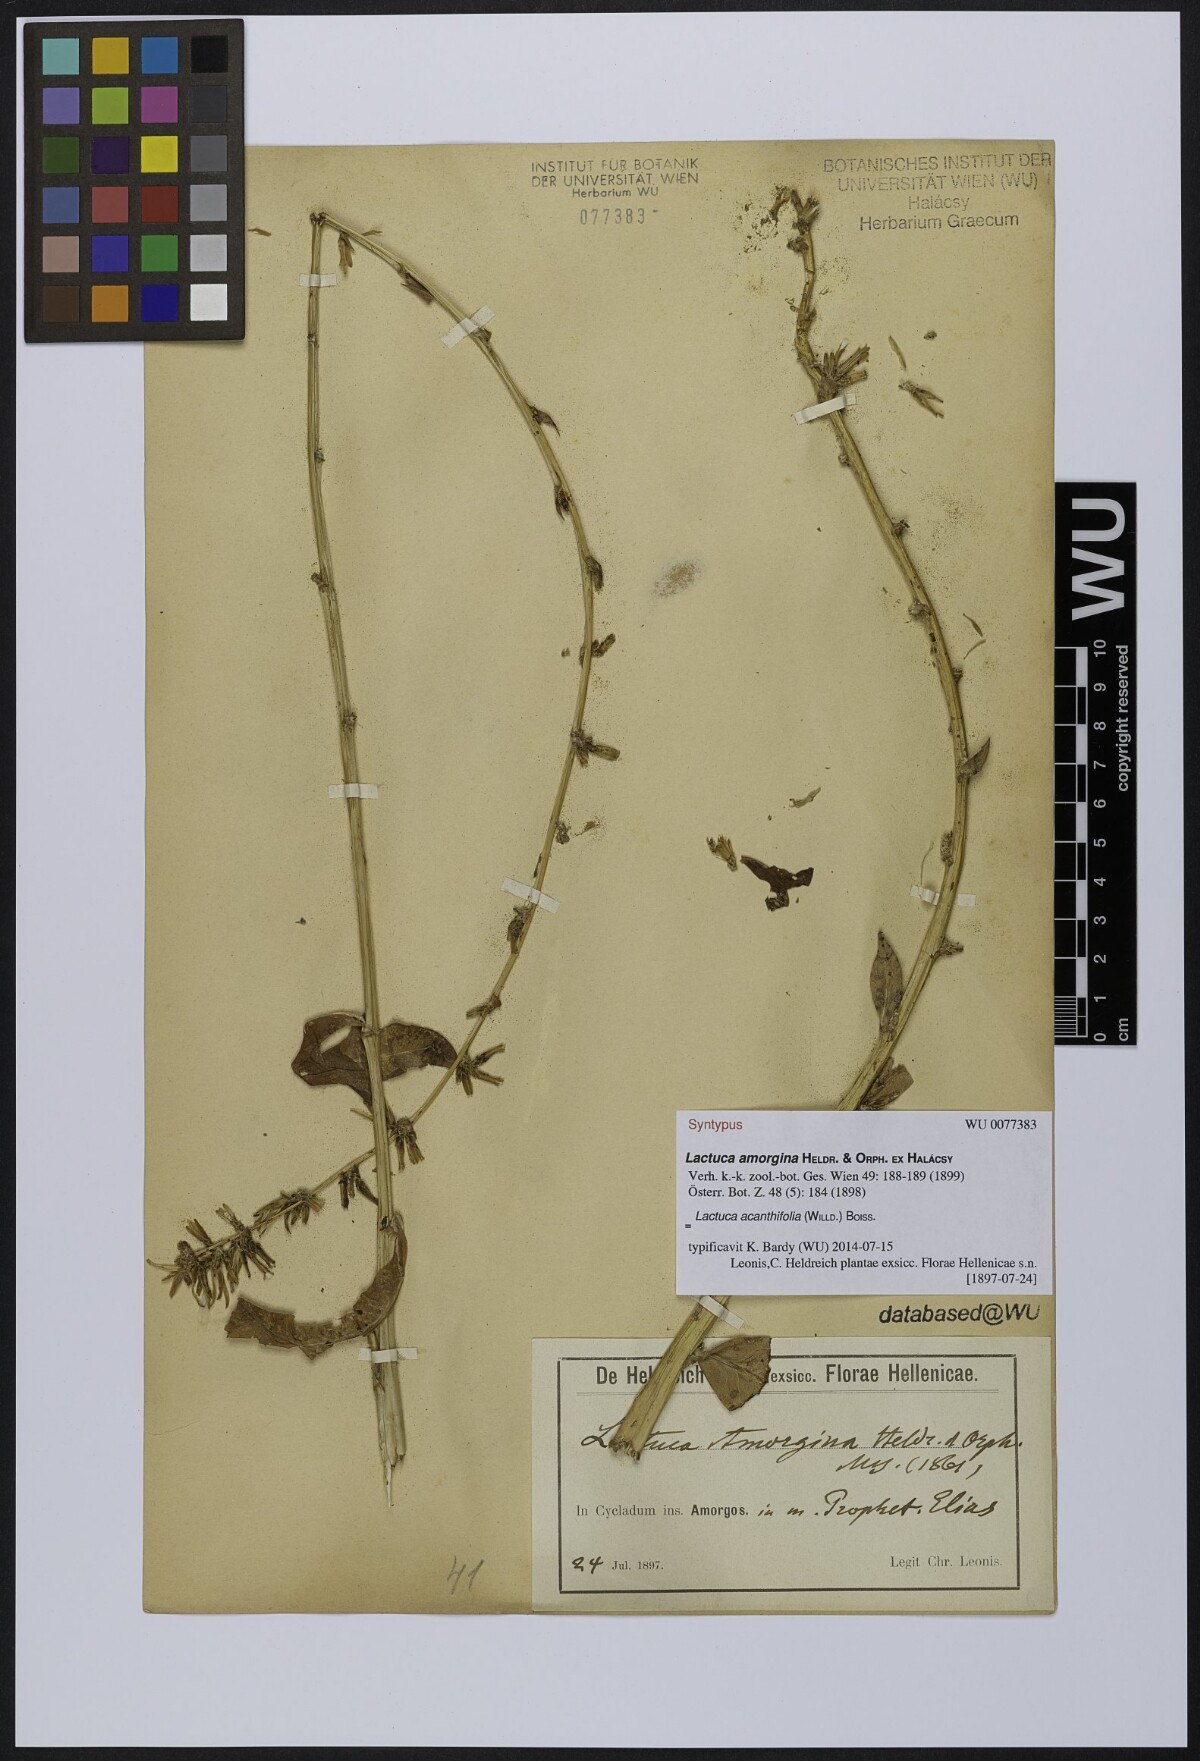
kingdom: Plantae
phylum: Tracheophyta
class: Magnoliopsida
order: Asterales
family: Asteraceae
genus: Lactuca
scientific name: Lactuca acanthifolia
